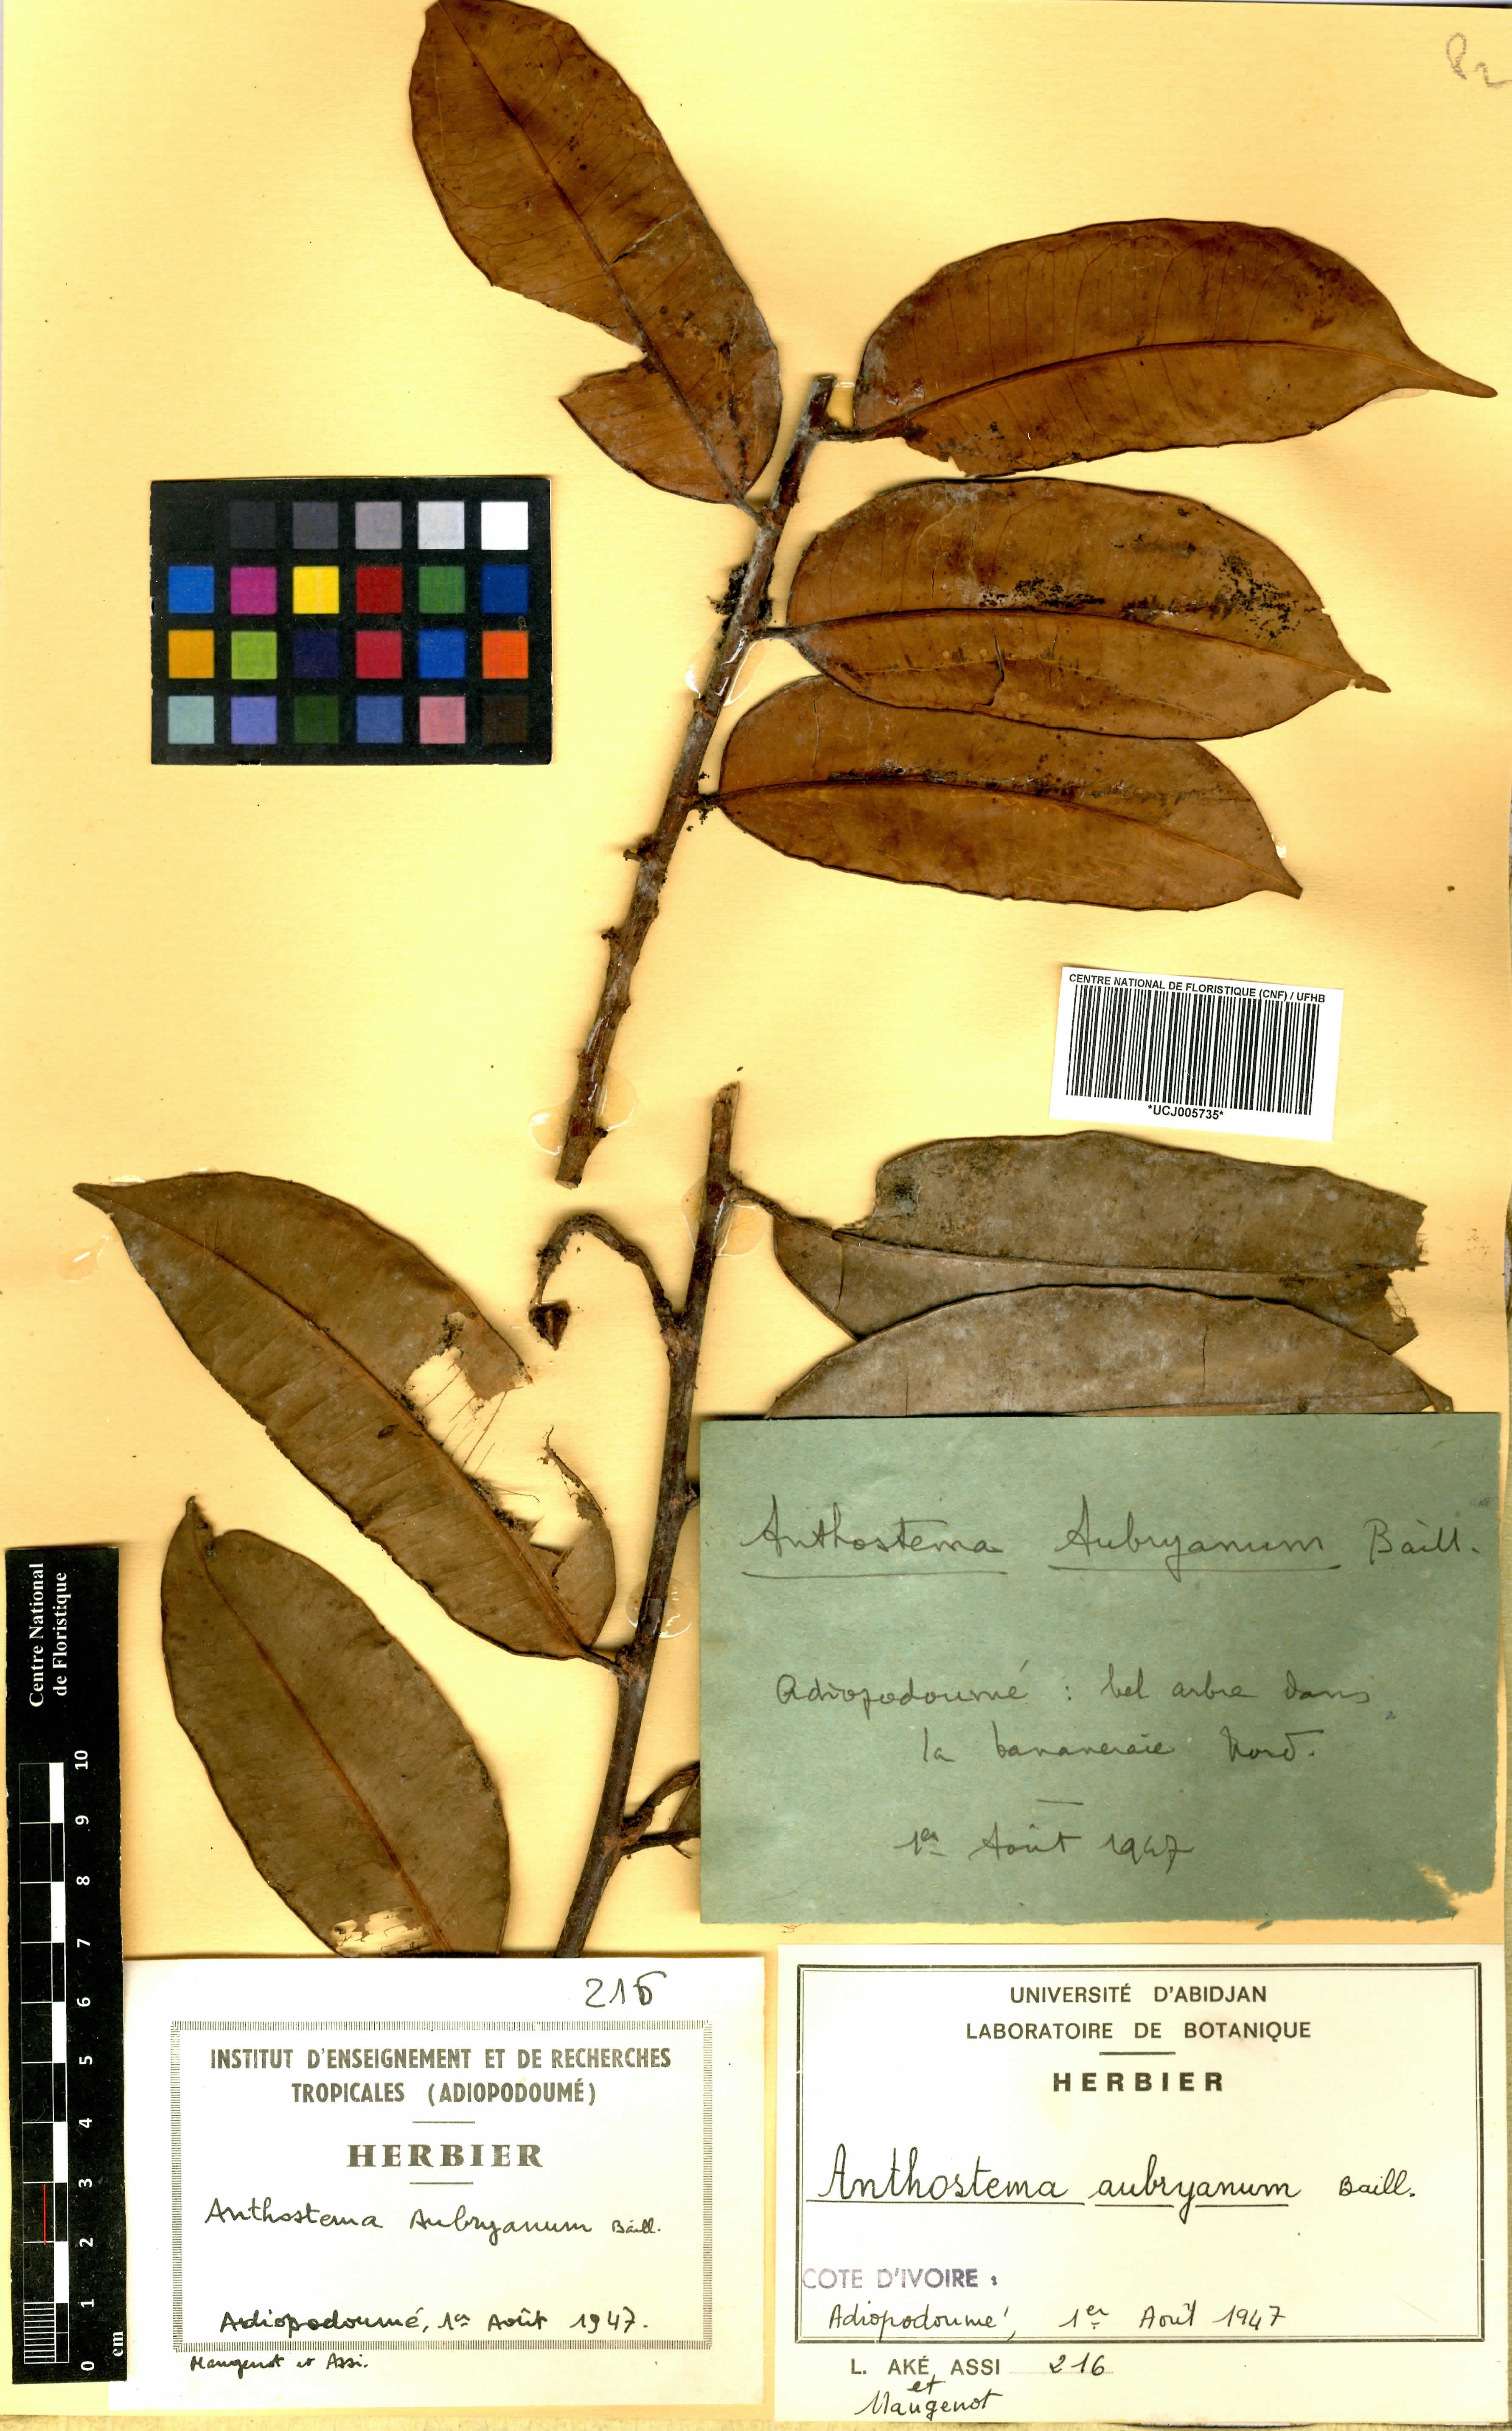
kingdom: Plantae
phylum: Tracheophyta
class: Magnoliopsida
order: Malpighiales
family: Euphorbiaceae
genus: Anthostema
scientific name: Anthostema aubryanum
